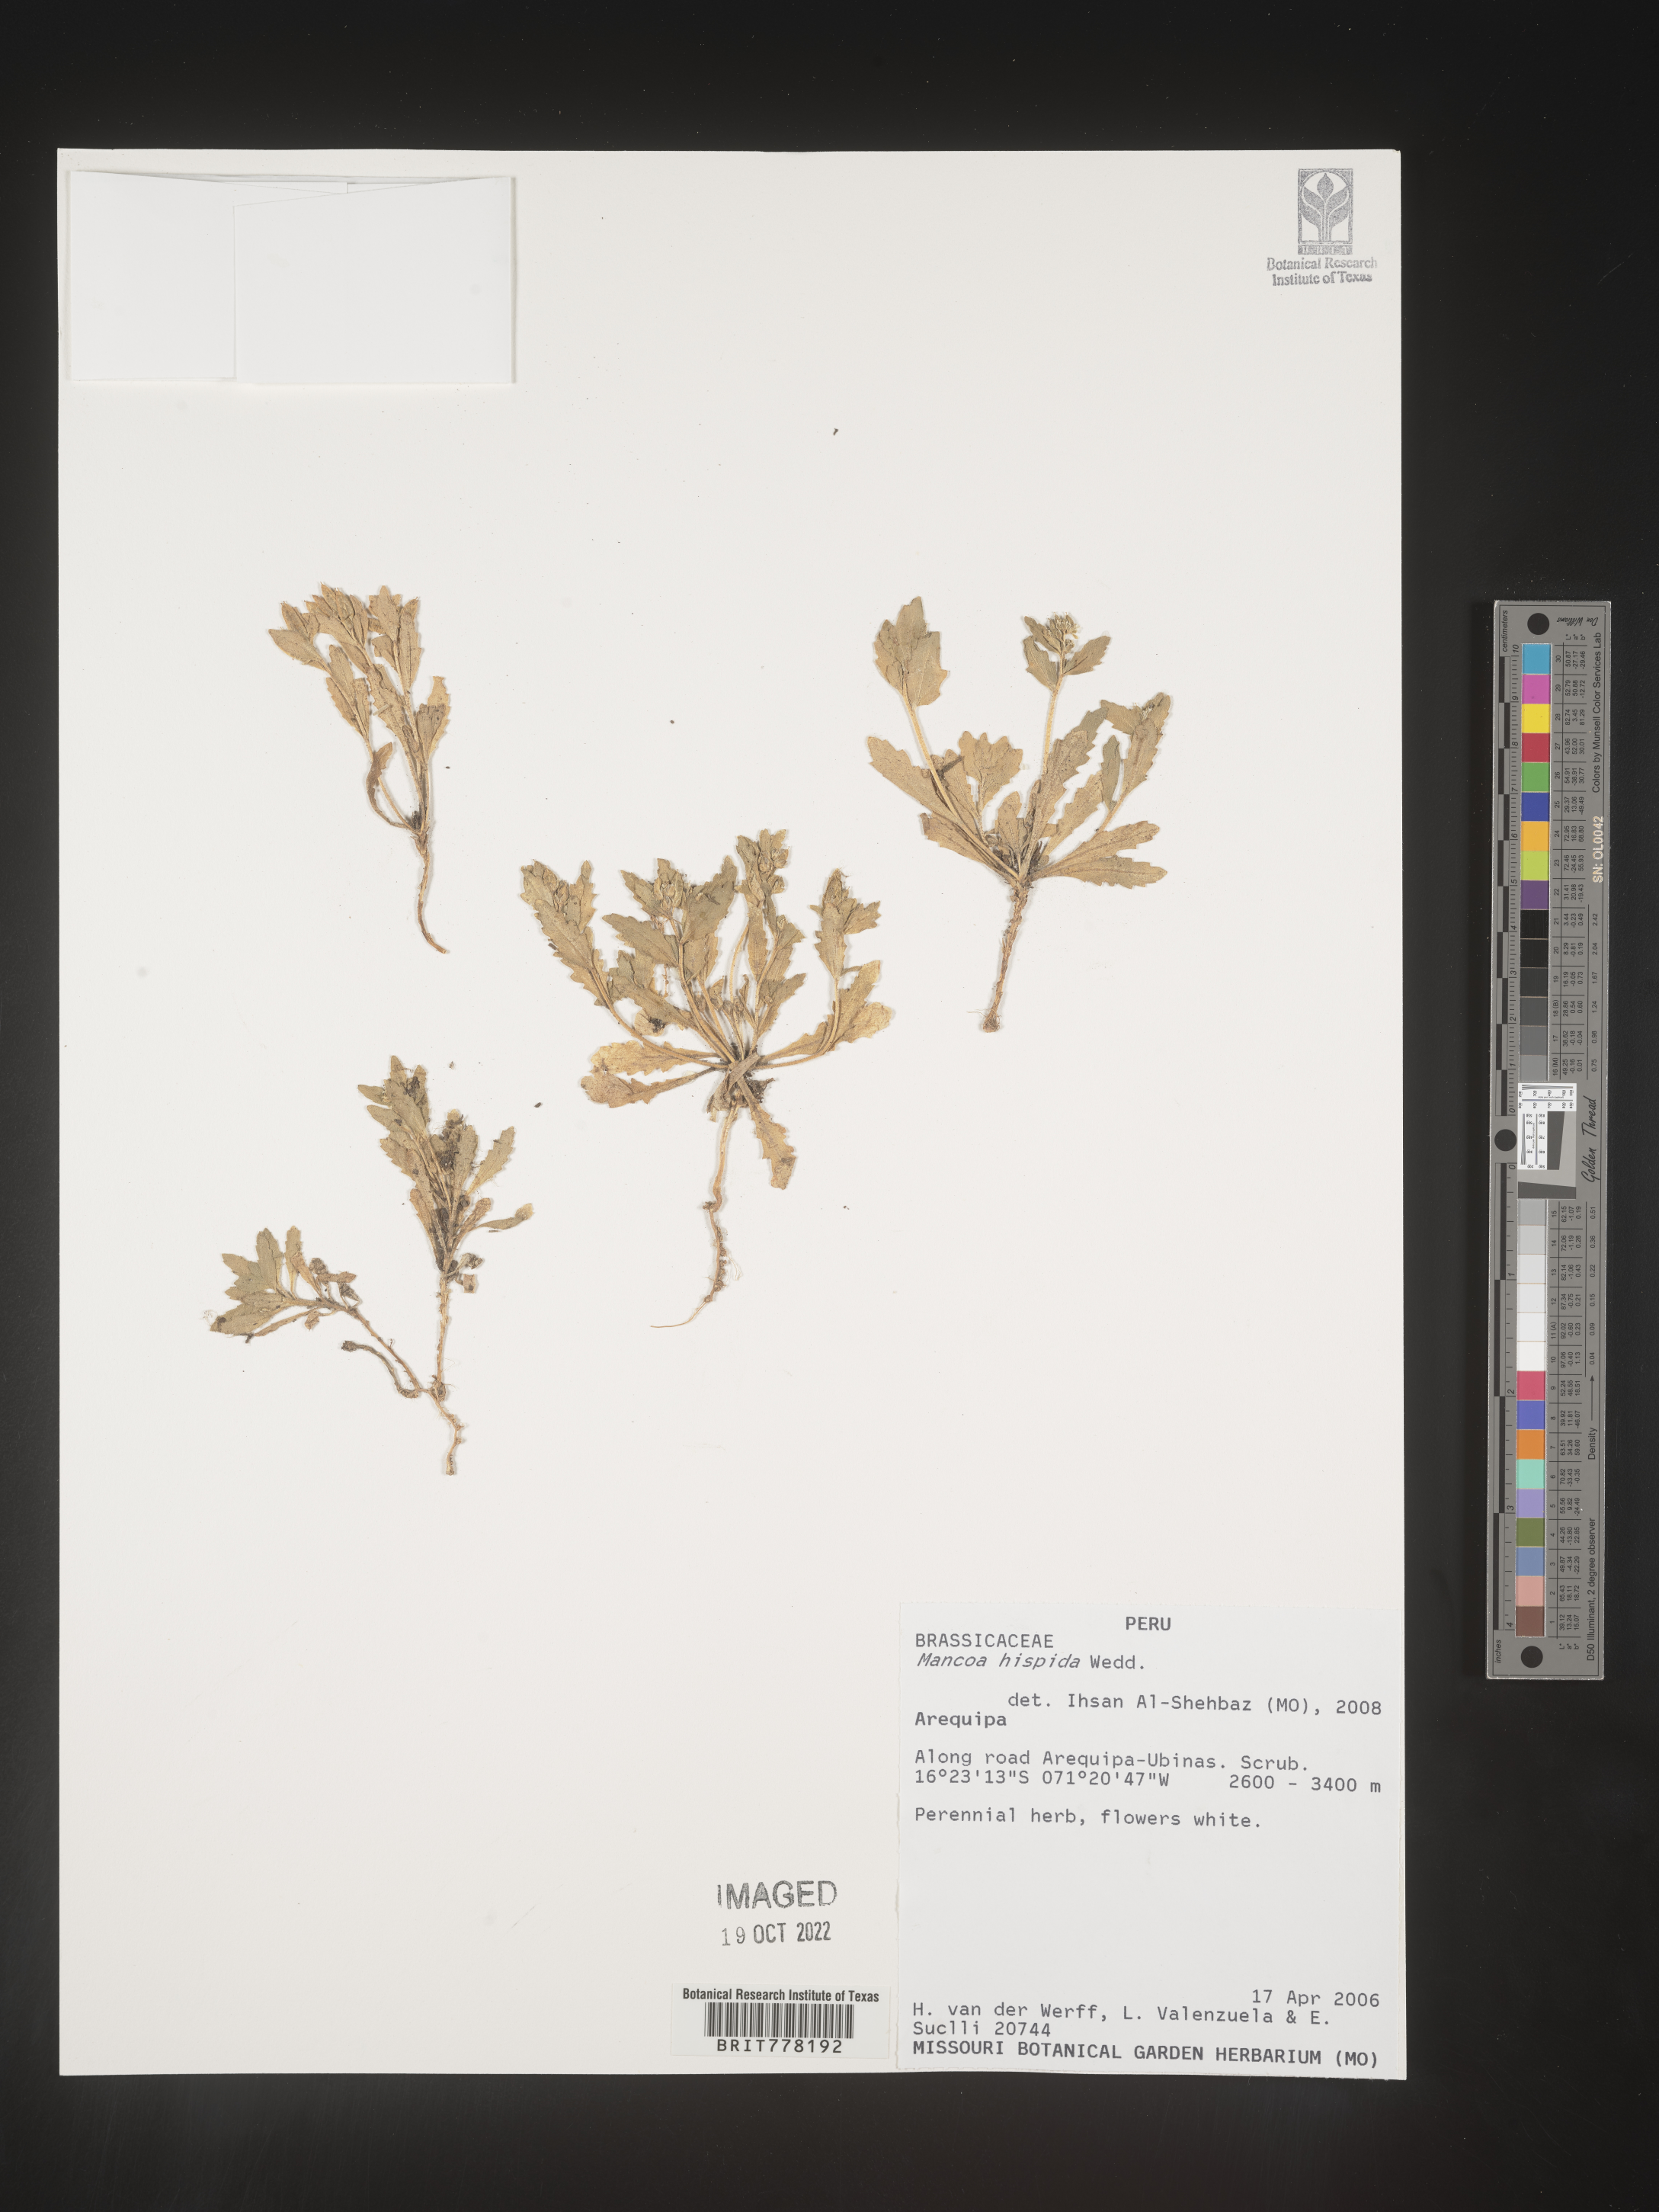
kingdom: Plantae
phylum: Tracheophyta
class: Magnoliopsida
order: Brassicales
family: Brassicaceae
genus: Mancoa
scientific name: Mancoa hispida
